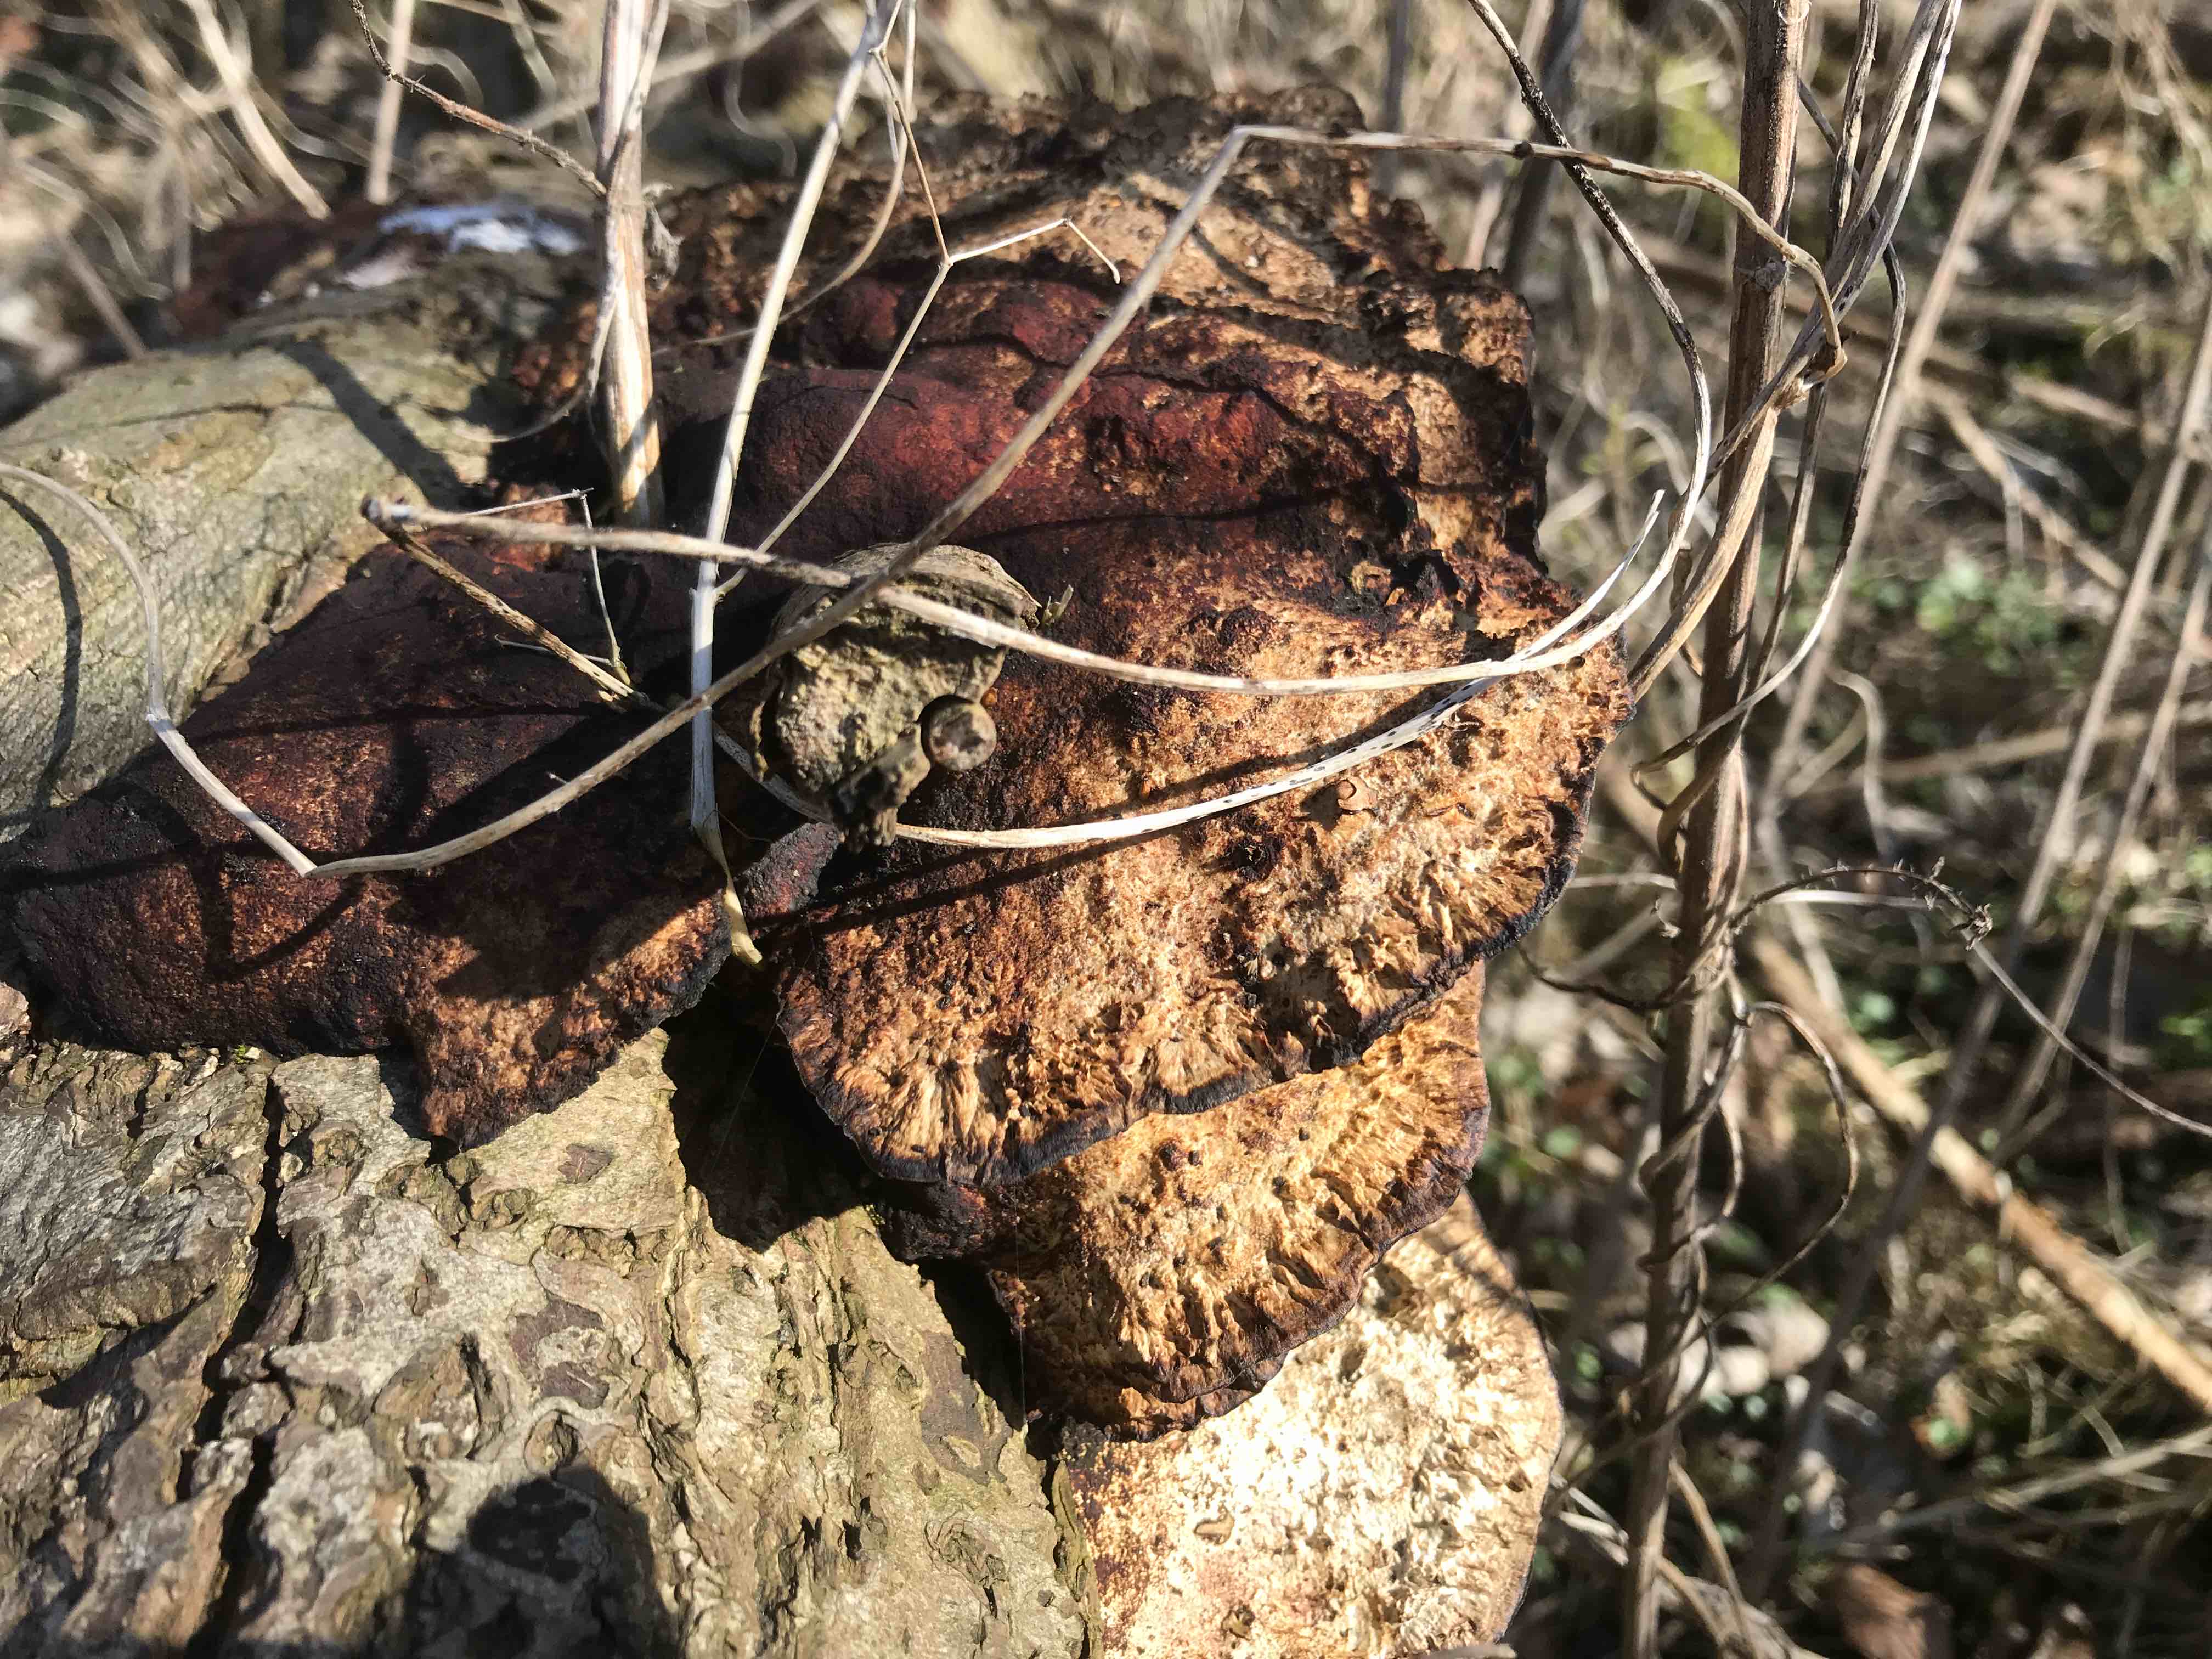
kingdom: Fungi
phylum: Basidiomycota
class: Agaricomycetes
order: Polyporales
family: Polyporaceae
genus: Daedaleopsis
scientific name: Daedaleopsis confragosa
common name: rødmende læderporesvamp
